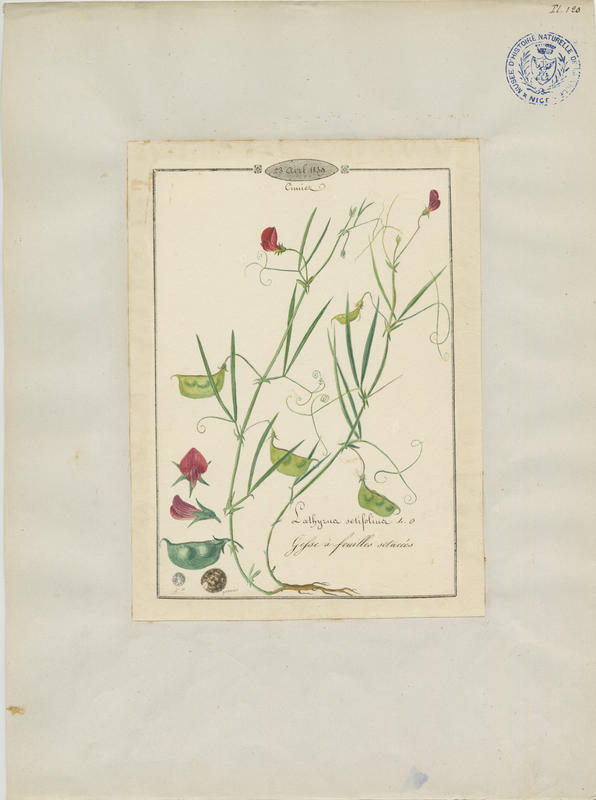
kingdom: Plantae
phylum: Tracheophyta
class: Magnoliopsida
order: Fabales
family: Fabaceae
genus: Lathyrus
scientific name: Lathyrus setifolius
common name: Brown vetchling
